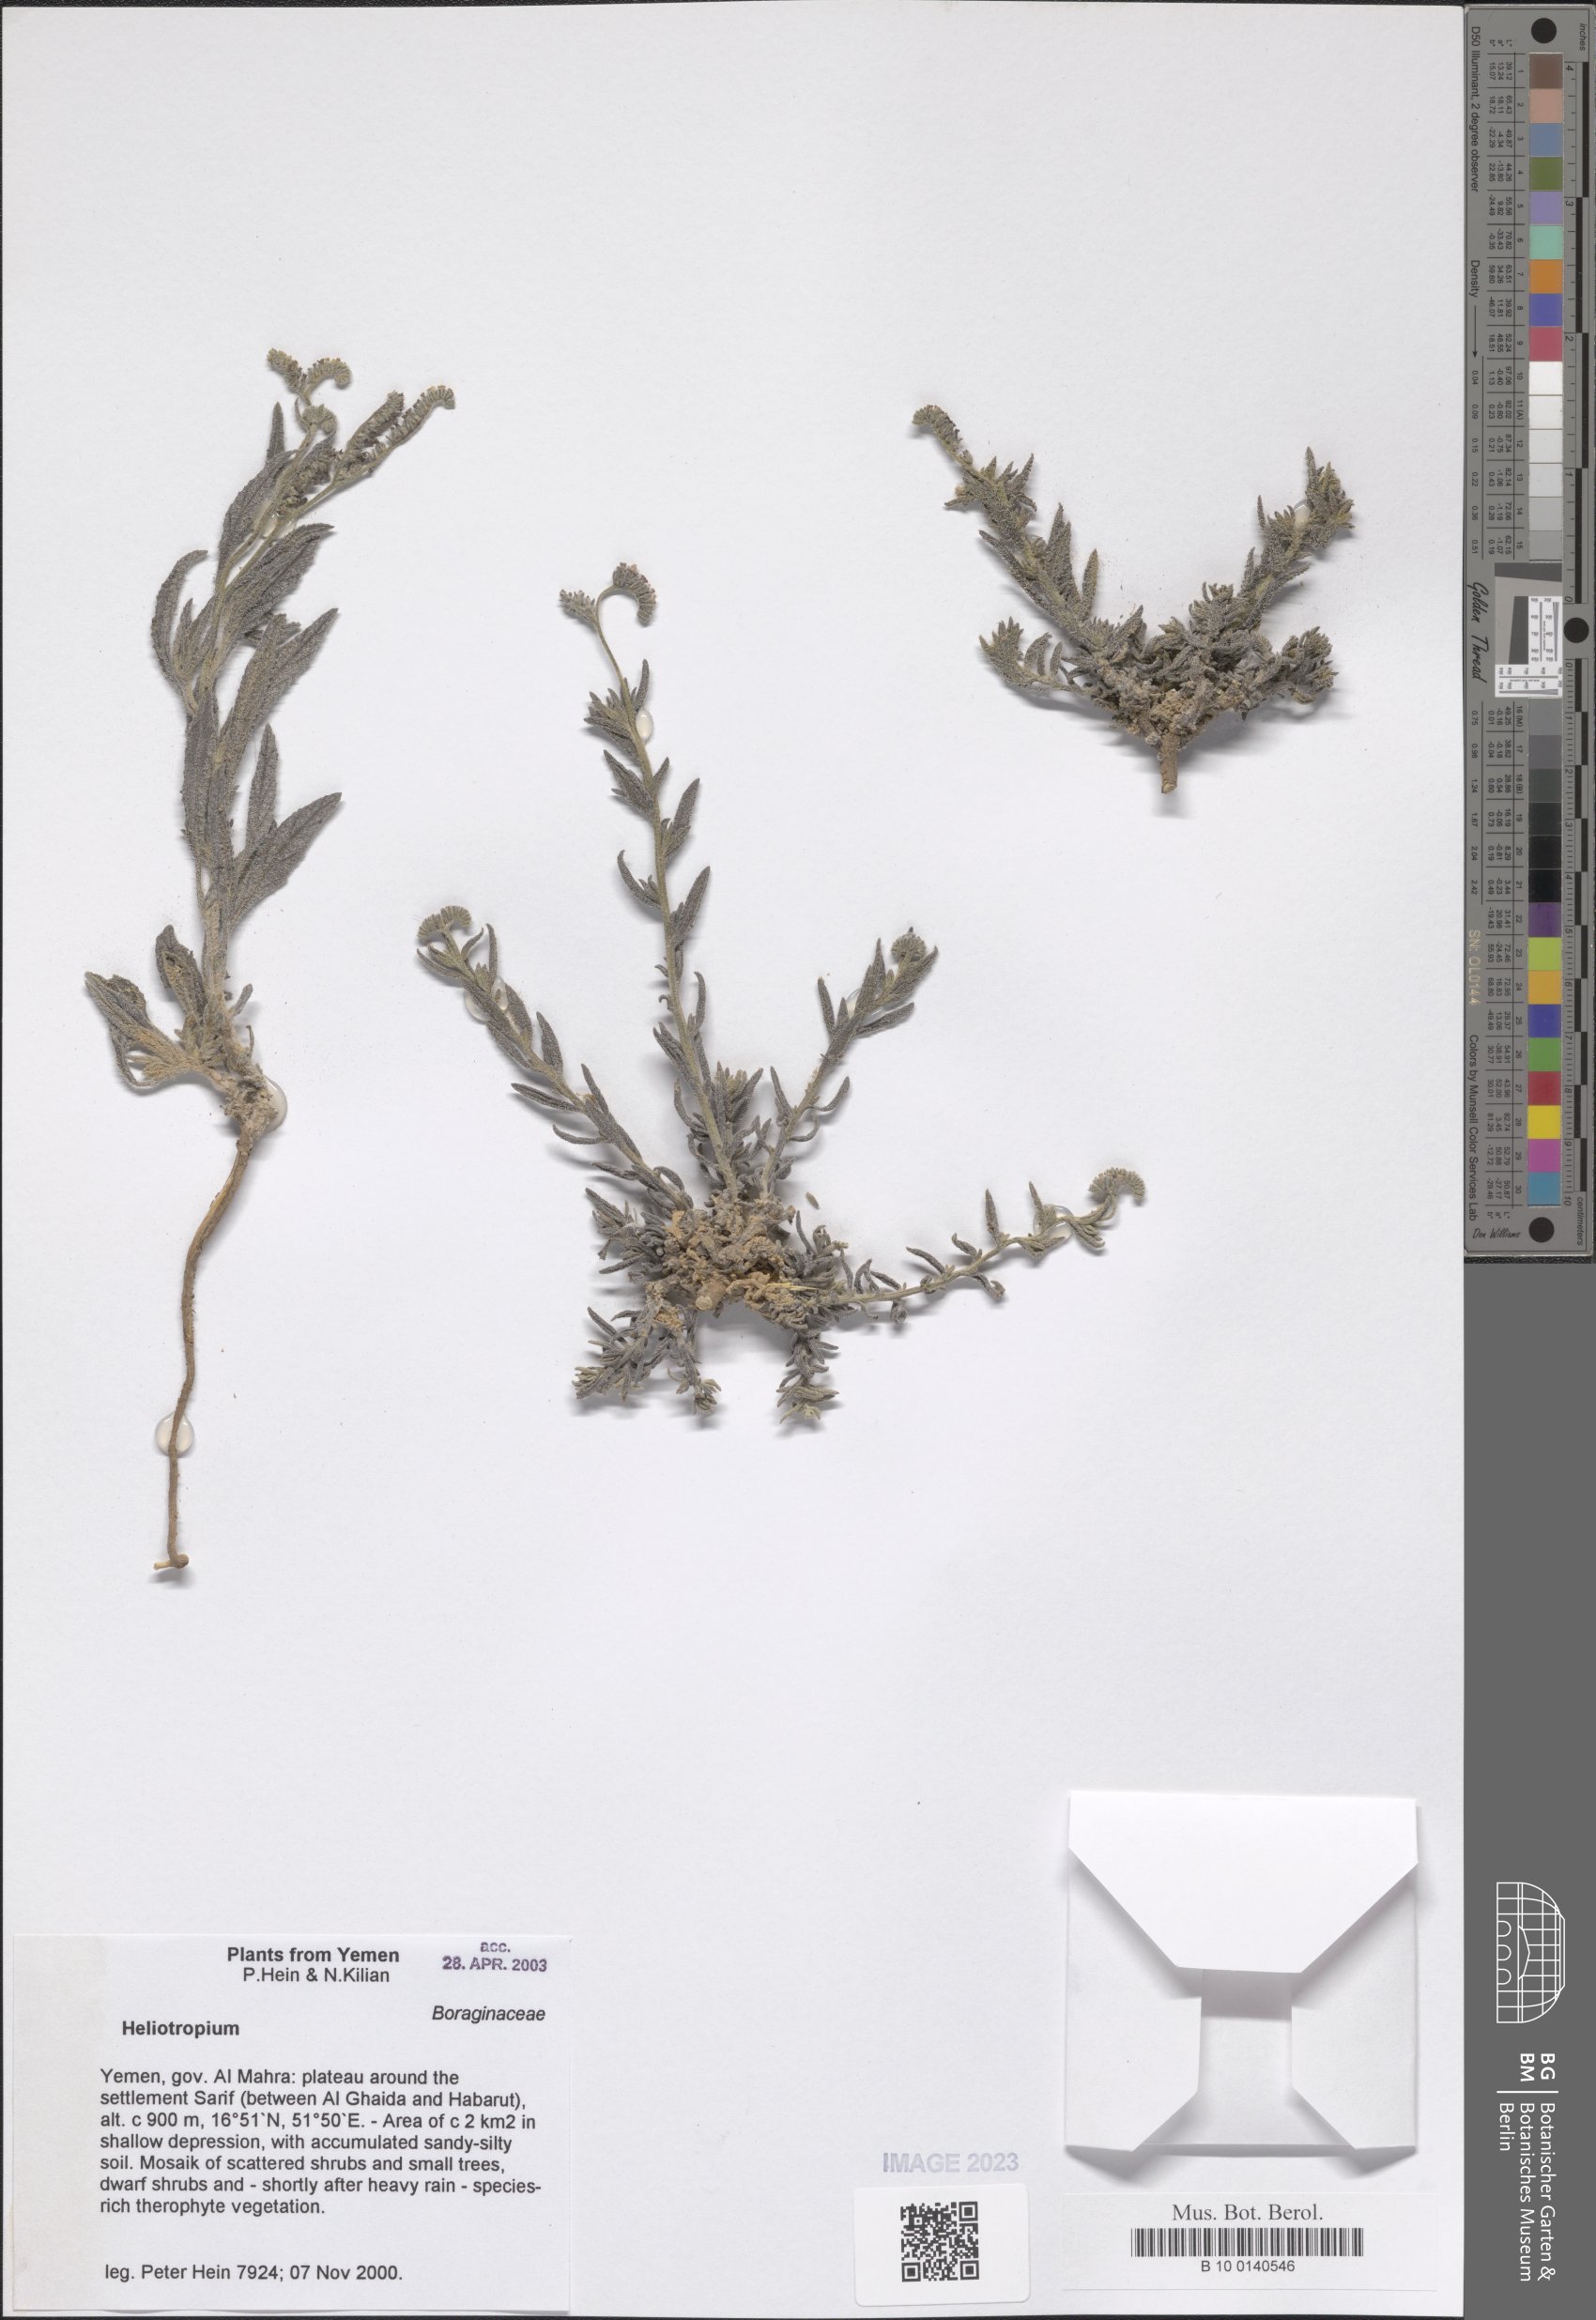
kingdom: Plantae
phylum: Tracheophyta
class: Magnoliopsida
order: Boraginales
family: Heliotropiaceae
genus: Heliotropium
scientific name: Heliotropium
